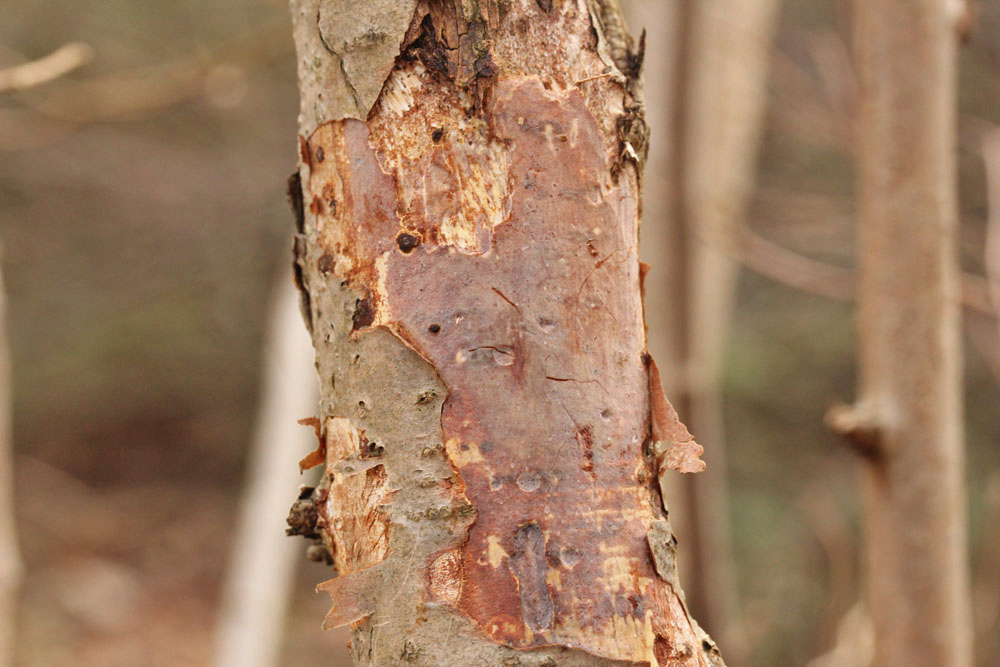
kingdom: Fungi
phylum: Basidiomycota
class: Agaricomycetes
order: Corticiales
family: Vuilleminiaceae
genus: Vuilleminia
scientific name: Vuilleminia coryli
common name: hassel-barksprænger
